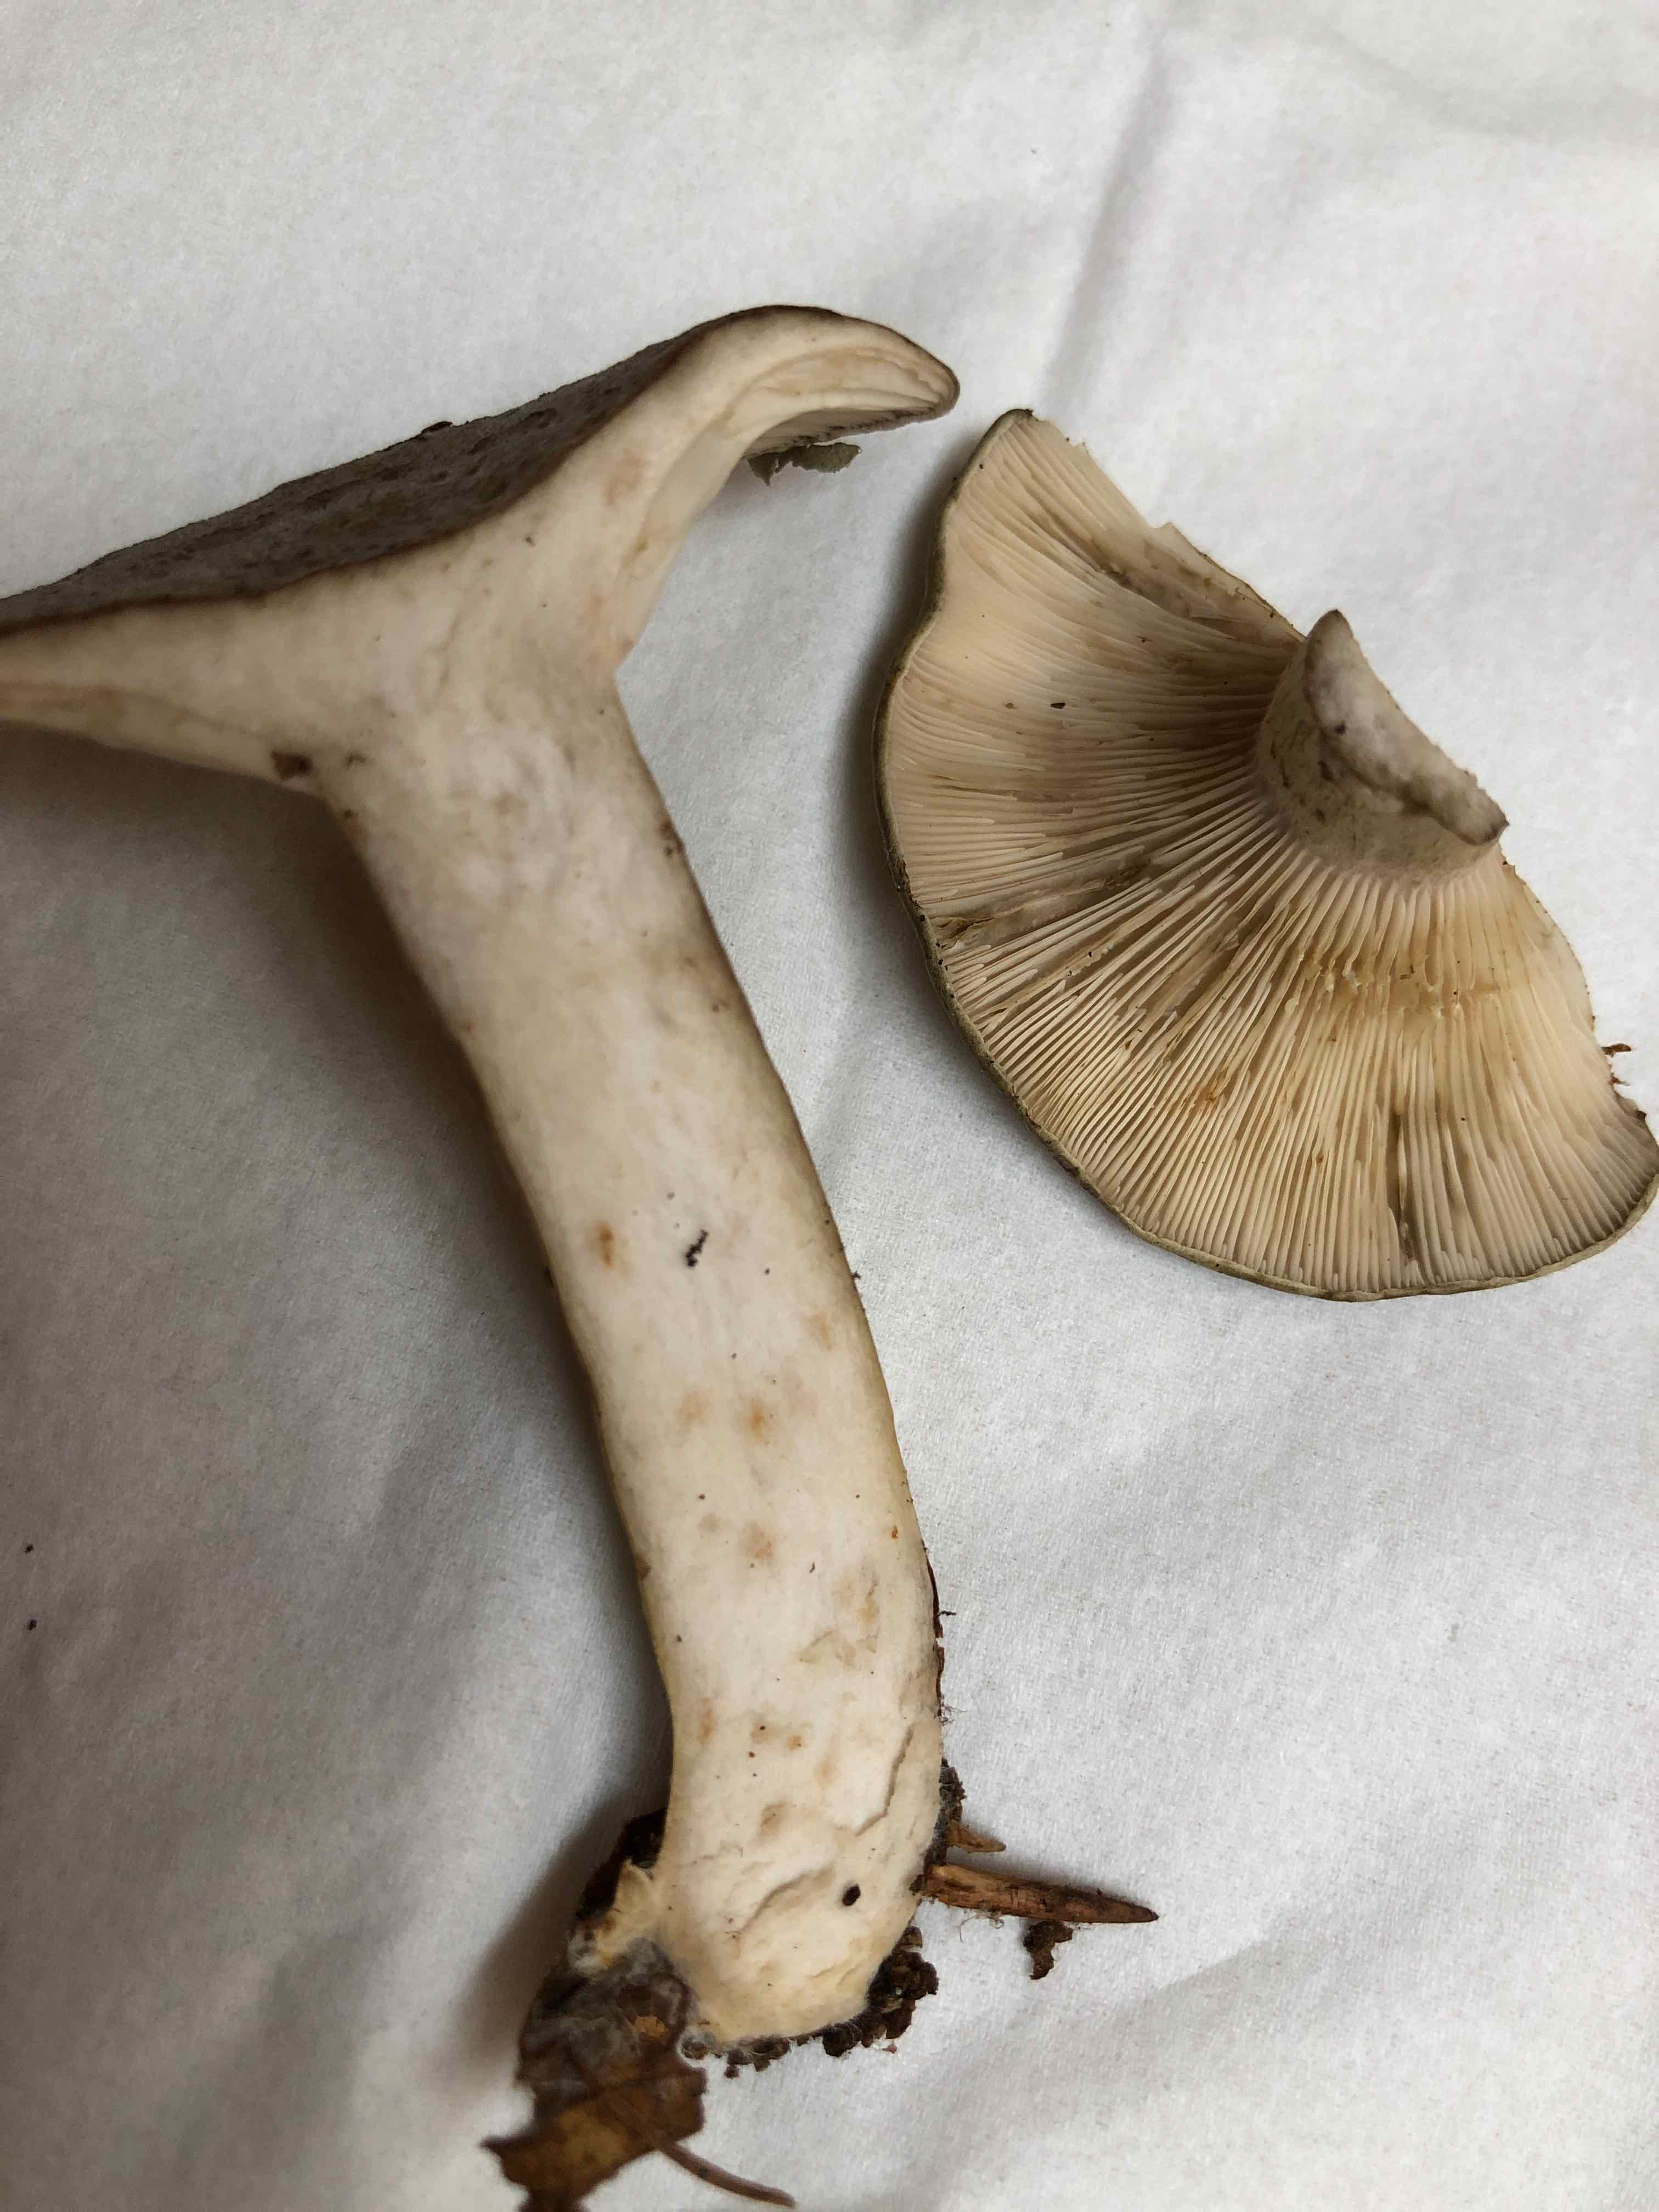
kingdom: Fungi
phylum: Basidiomycota
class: Agaricomycetes
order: Russulales
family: Russulaceae
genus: Lactarius
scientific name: Lactarius blennius
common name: dråbeplettet mælkehat
